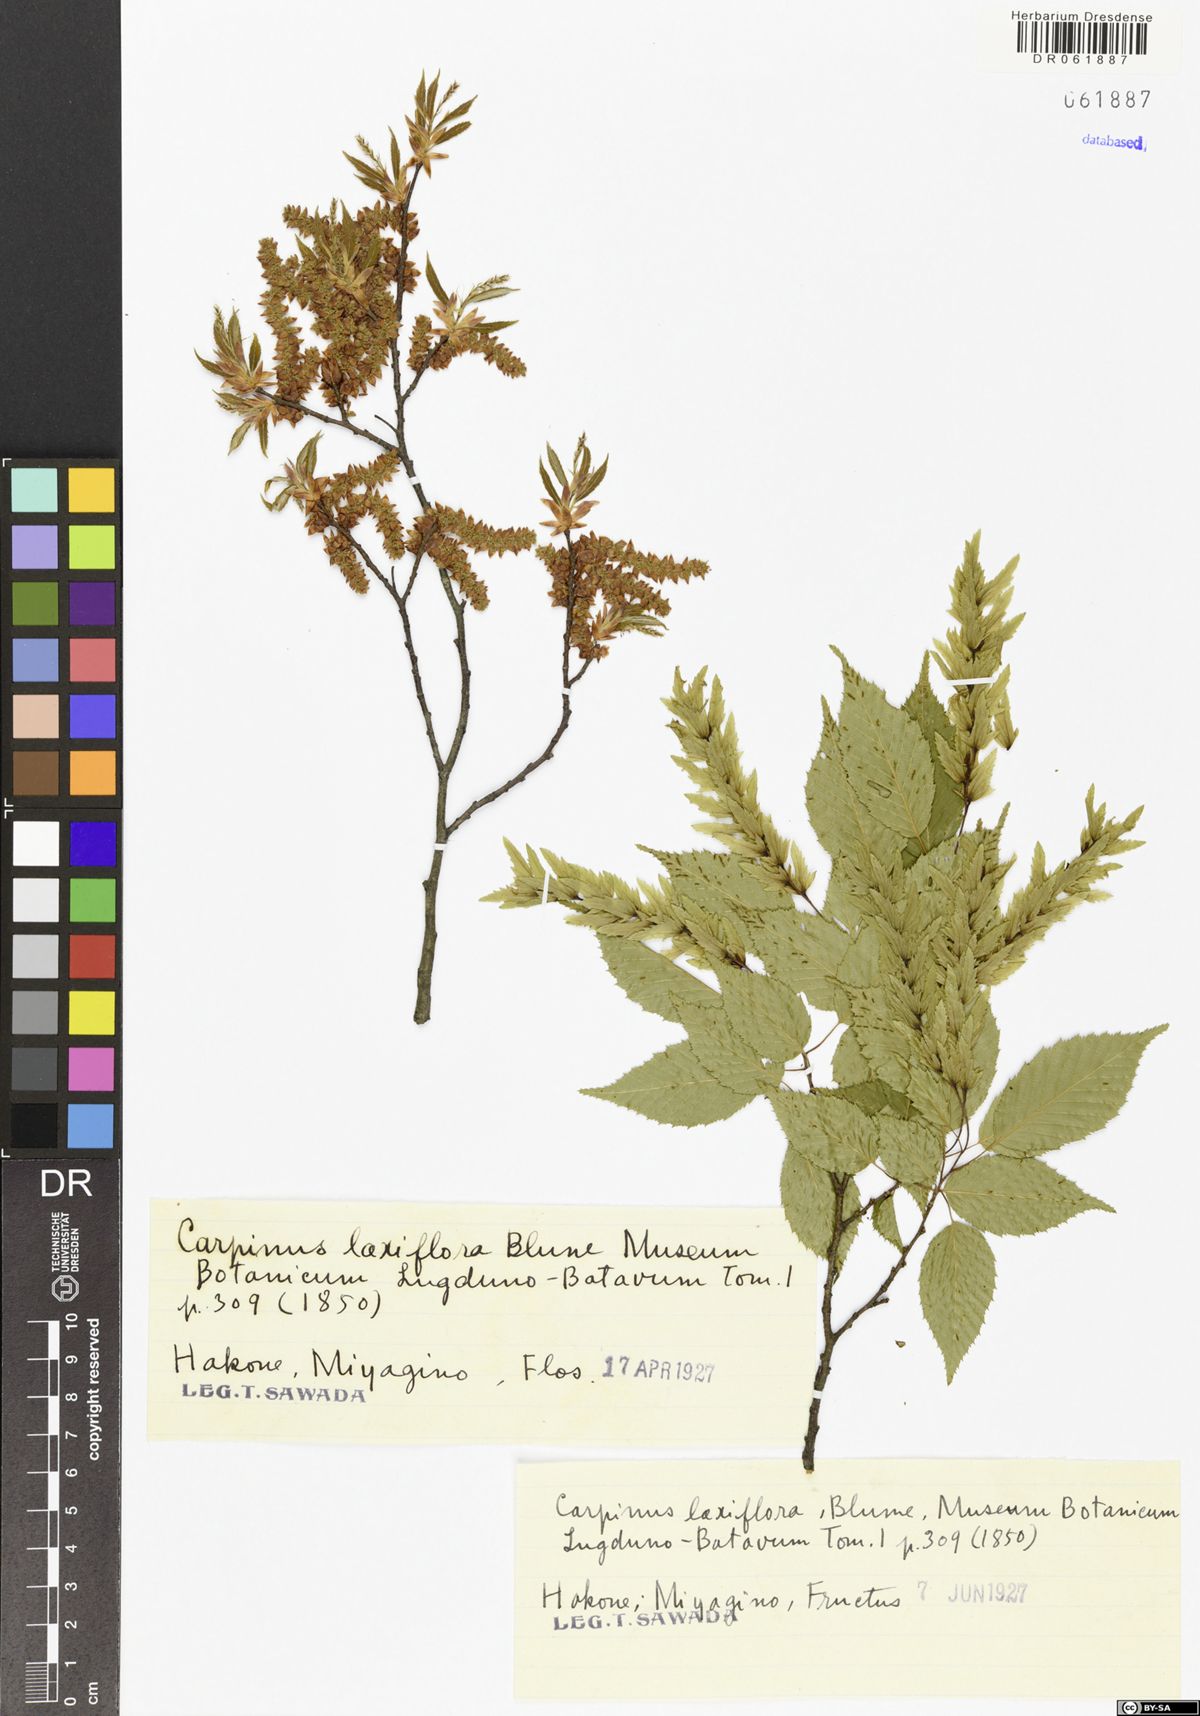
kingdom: Plantae
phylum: Tracheophyta
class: Magnoliopsida
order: Fagales
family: Betulaceae
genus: Carpinus
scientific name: Carpinus laxiflora
